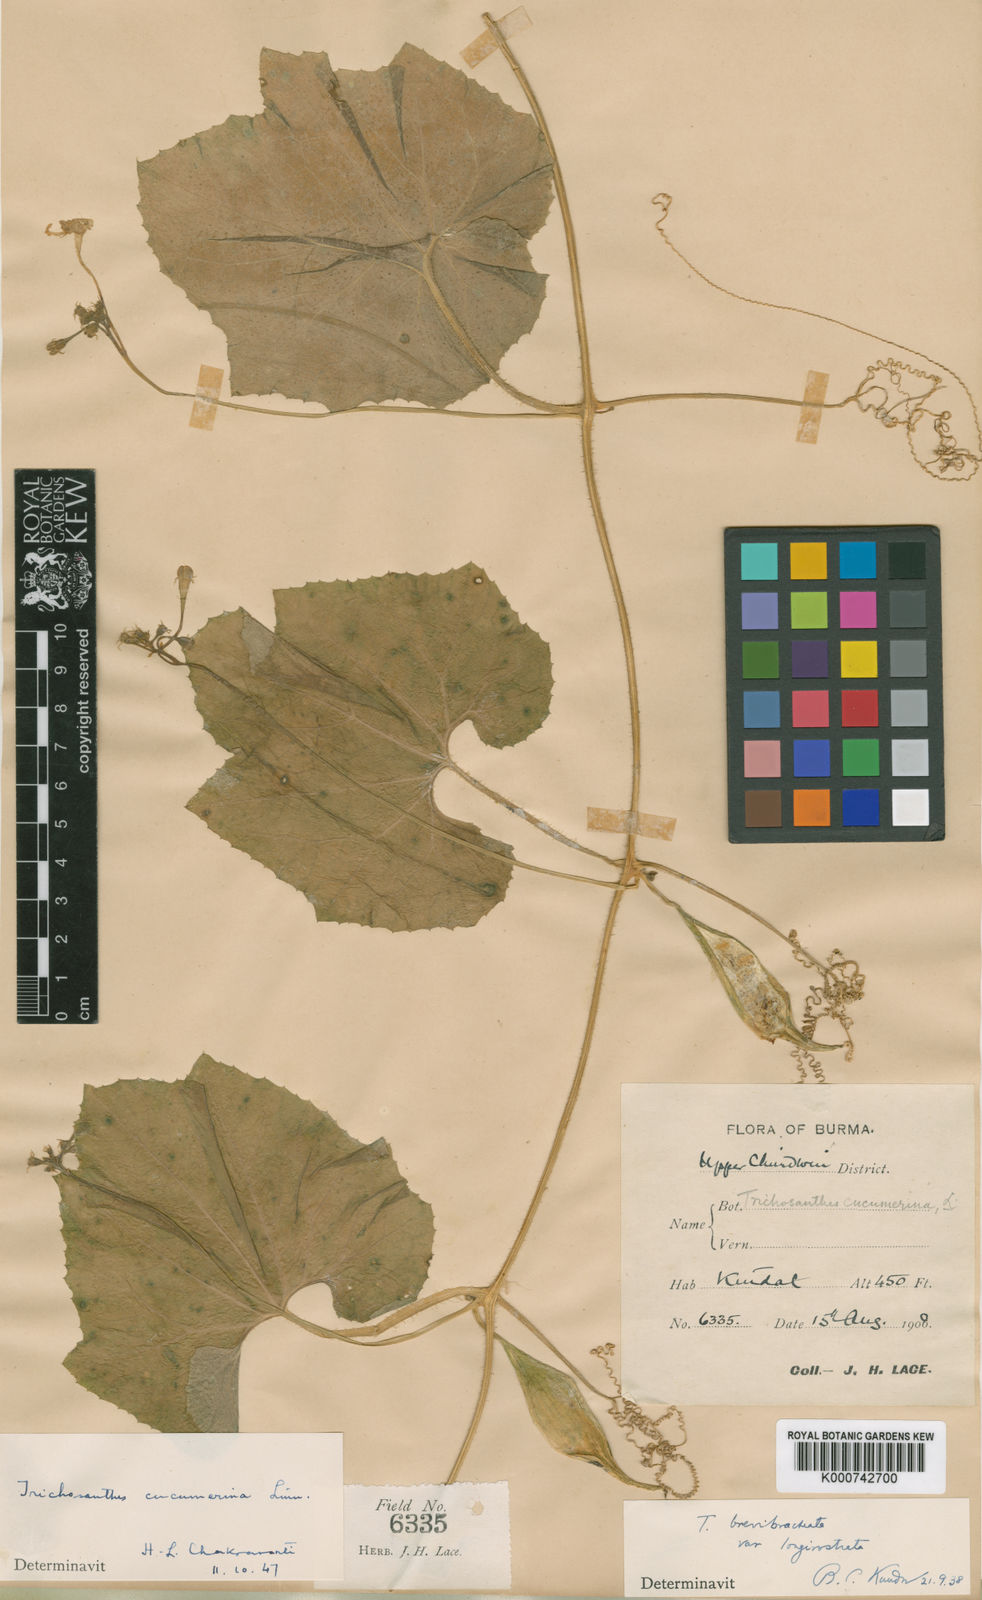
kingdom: Plantae
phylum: Tracheophyta
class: Magnoliopsida
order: Cucurbitales
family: Cucurbitaceae
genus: Trichosanthes
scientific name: Trichosanthes cucumerina
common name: Snakegourd
